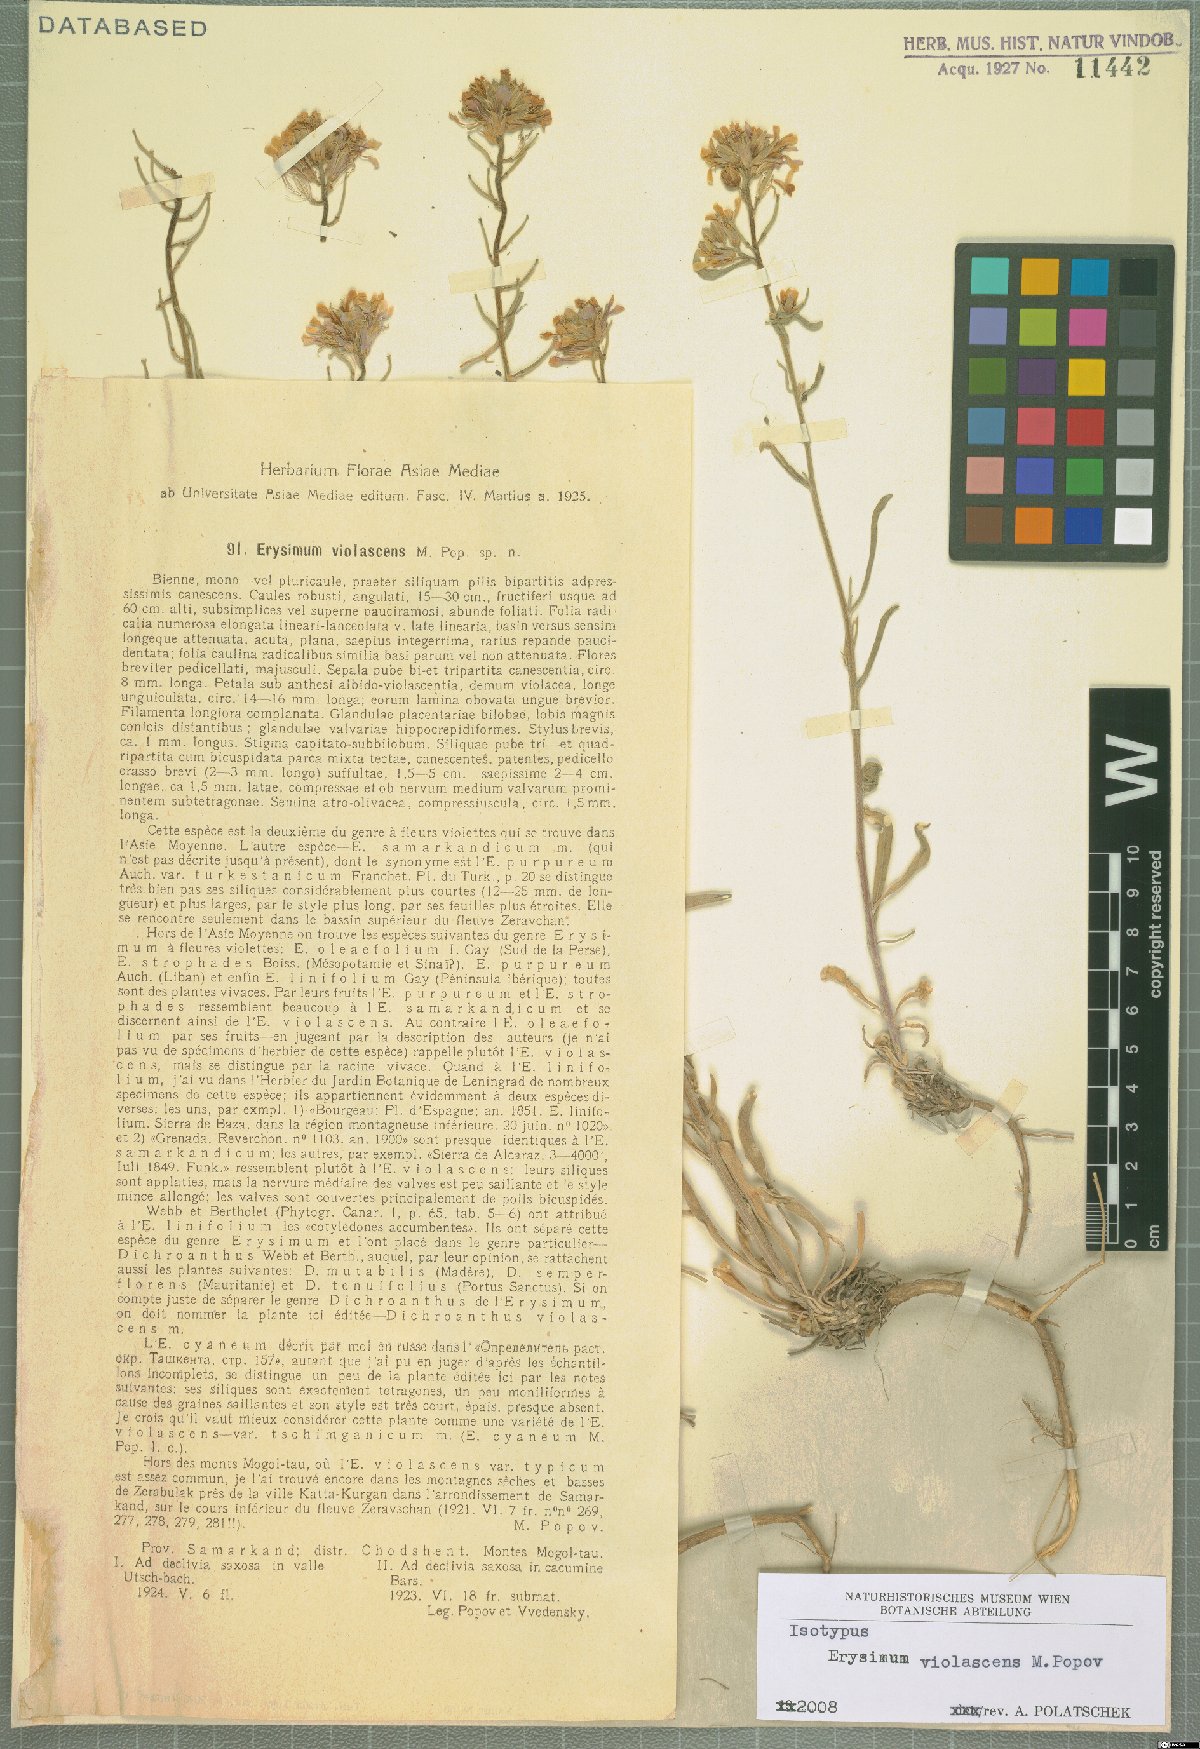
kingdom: Plantae
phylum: Tracheophyta
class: Magnoliopsida
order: Brassicales
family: Brassicaceae
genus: Erysimum
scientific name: Erysimum violascens
